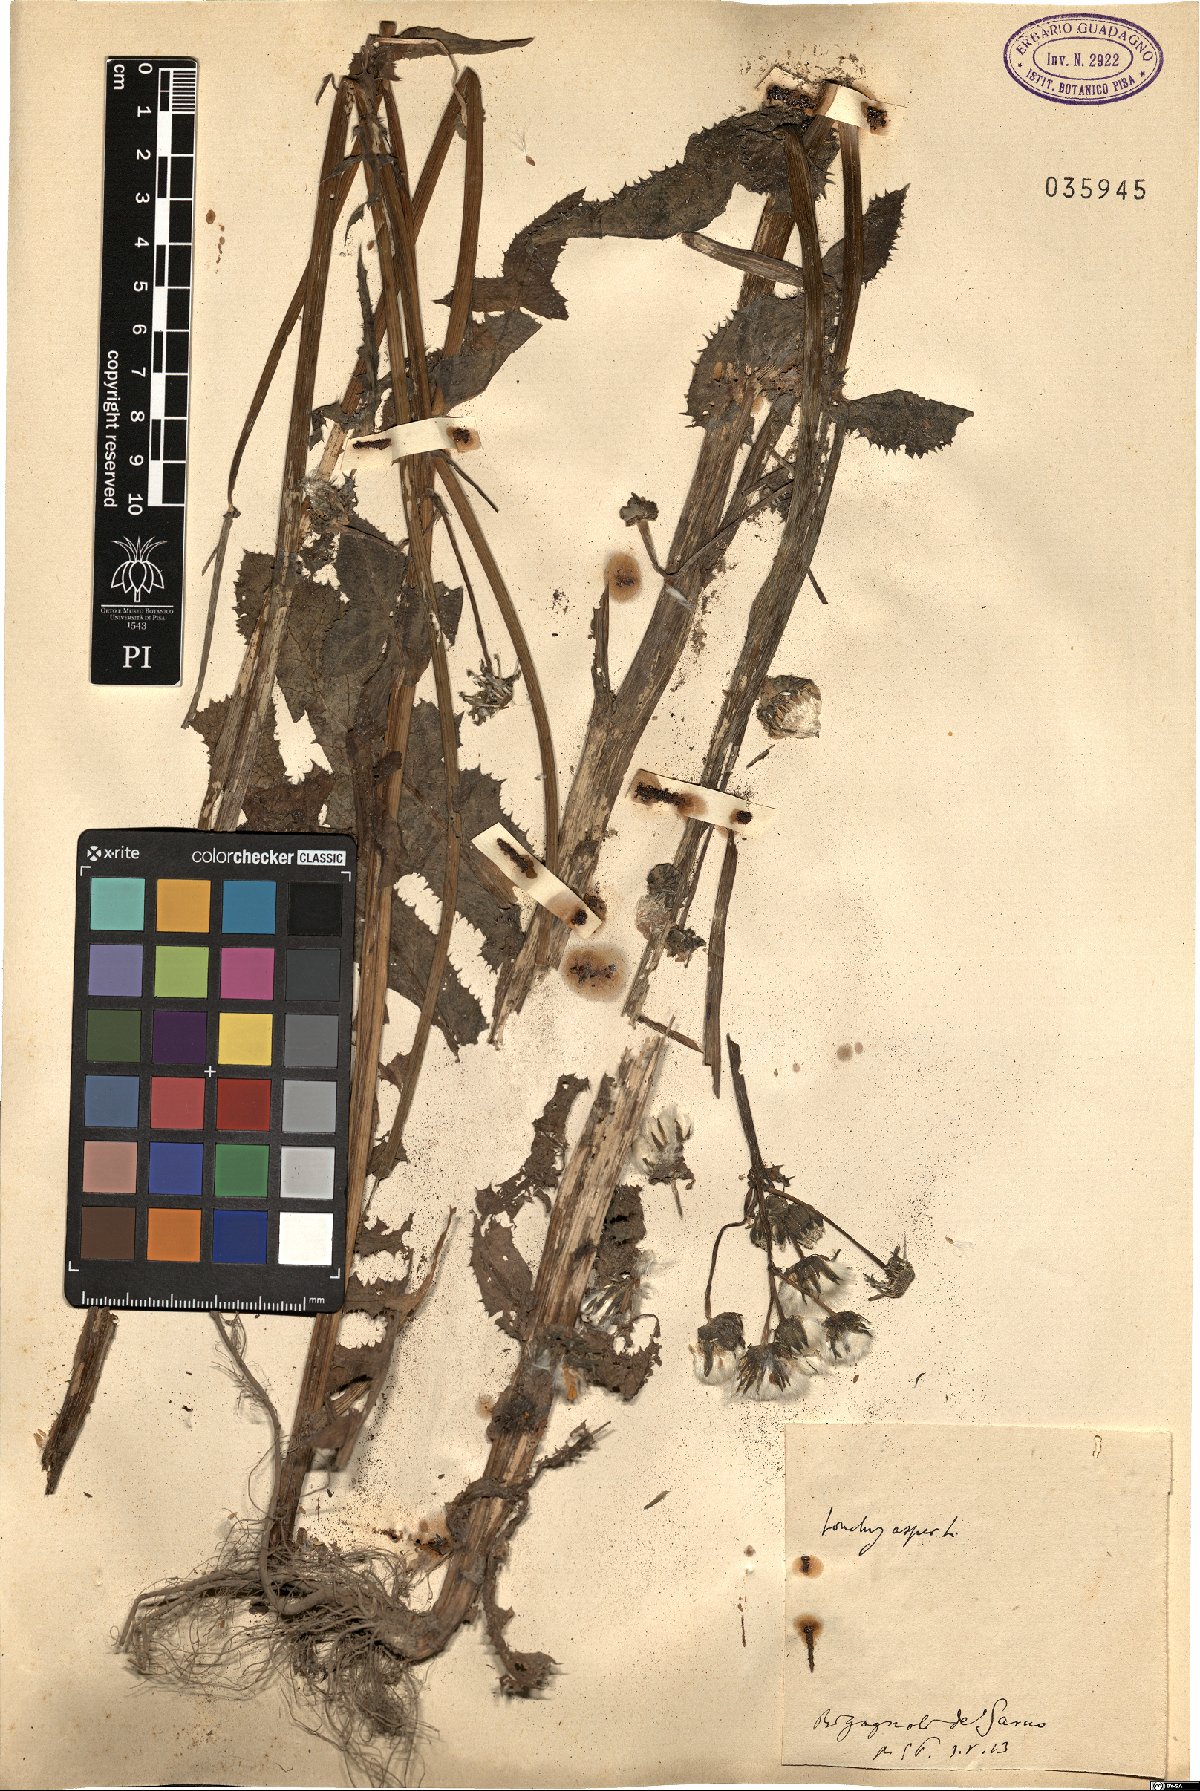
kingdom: Plantae
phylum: Tracheophyta
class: Magnoliopsida
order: Asterales
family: Asteraceae
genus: Sonchus
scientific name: Sonchus asper
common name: Prickly sow-thistle
